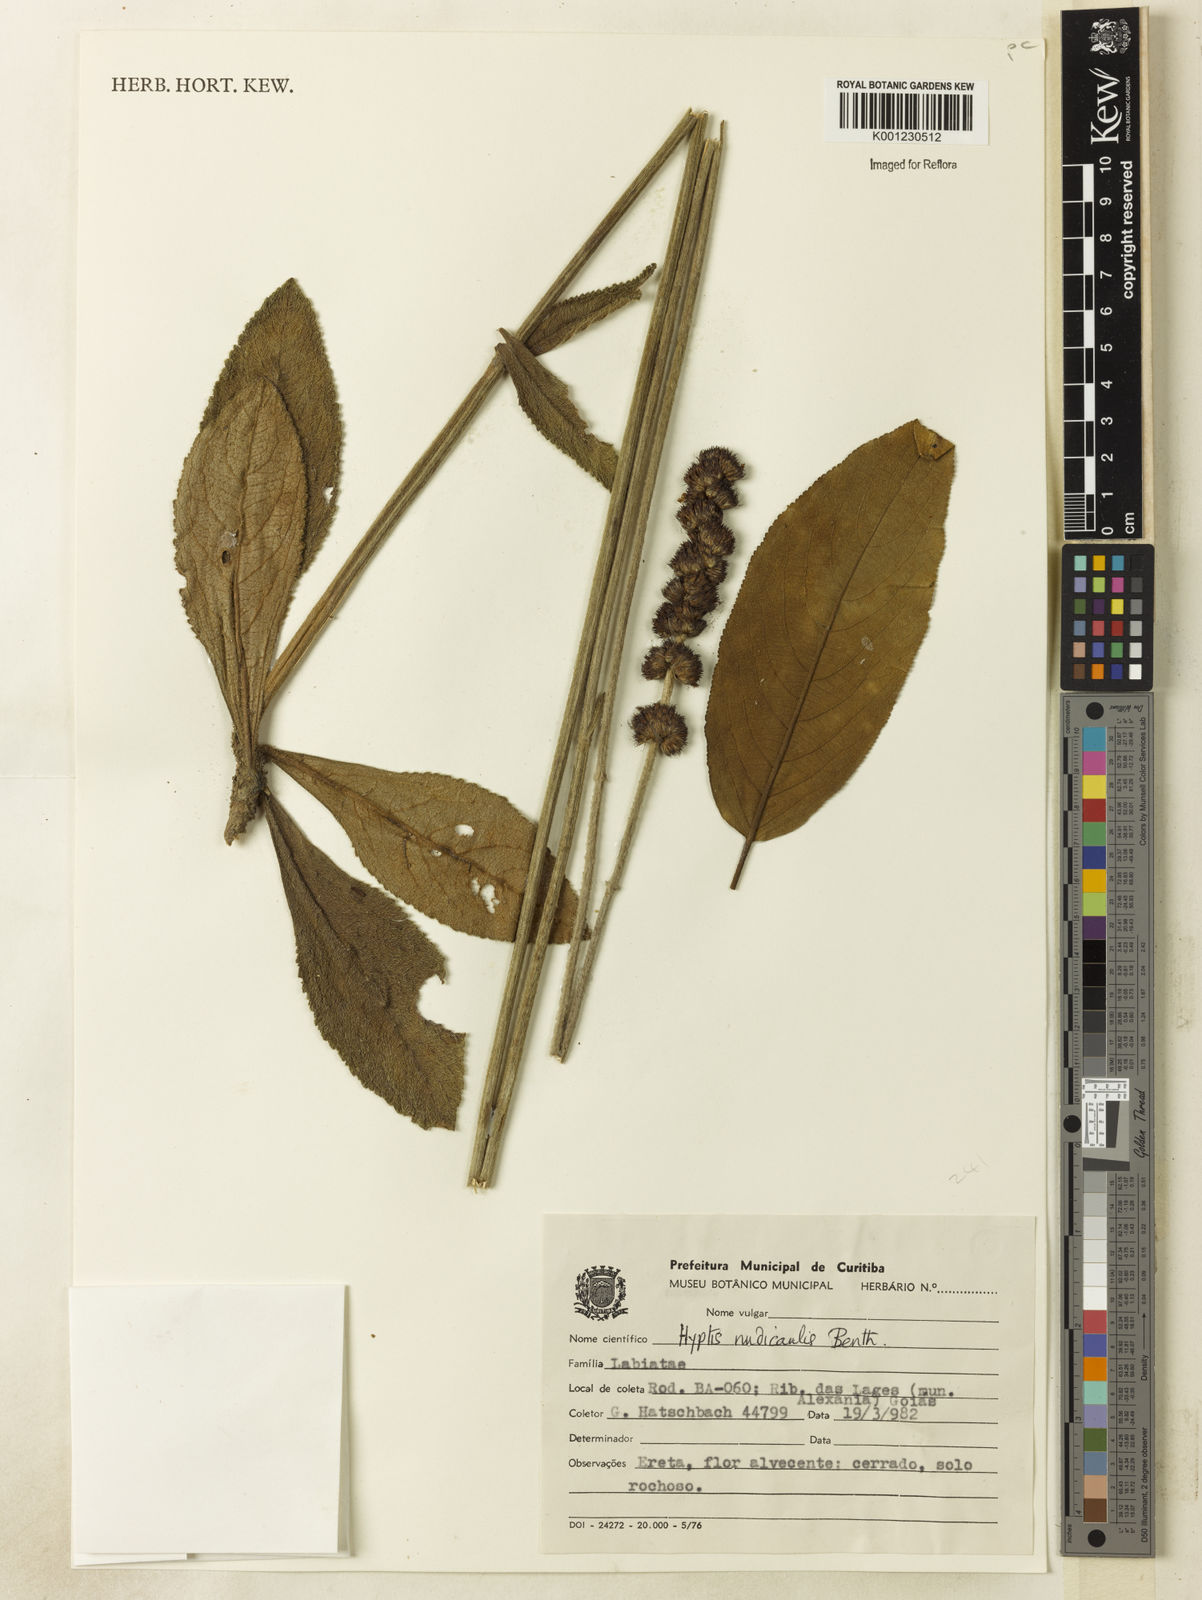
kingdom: Plantae
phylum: Tracheophyta
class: Magnoliopsida
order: Lamiales
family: Lamiaceae
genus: Hyptis
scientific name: Hyptis nudicaulis
